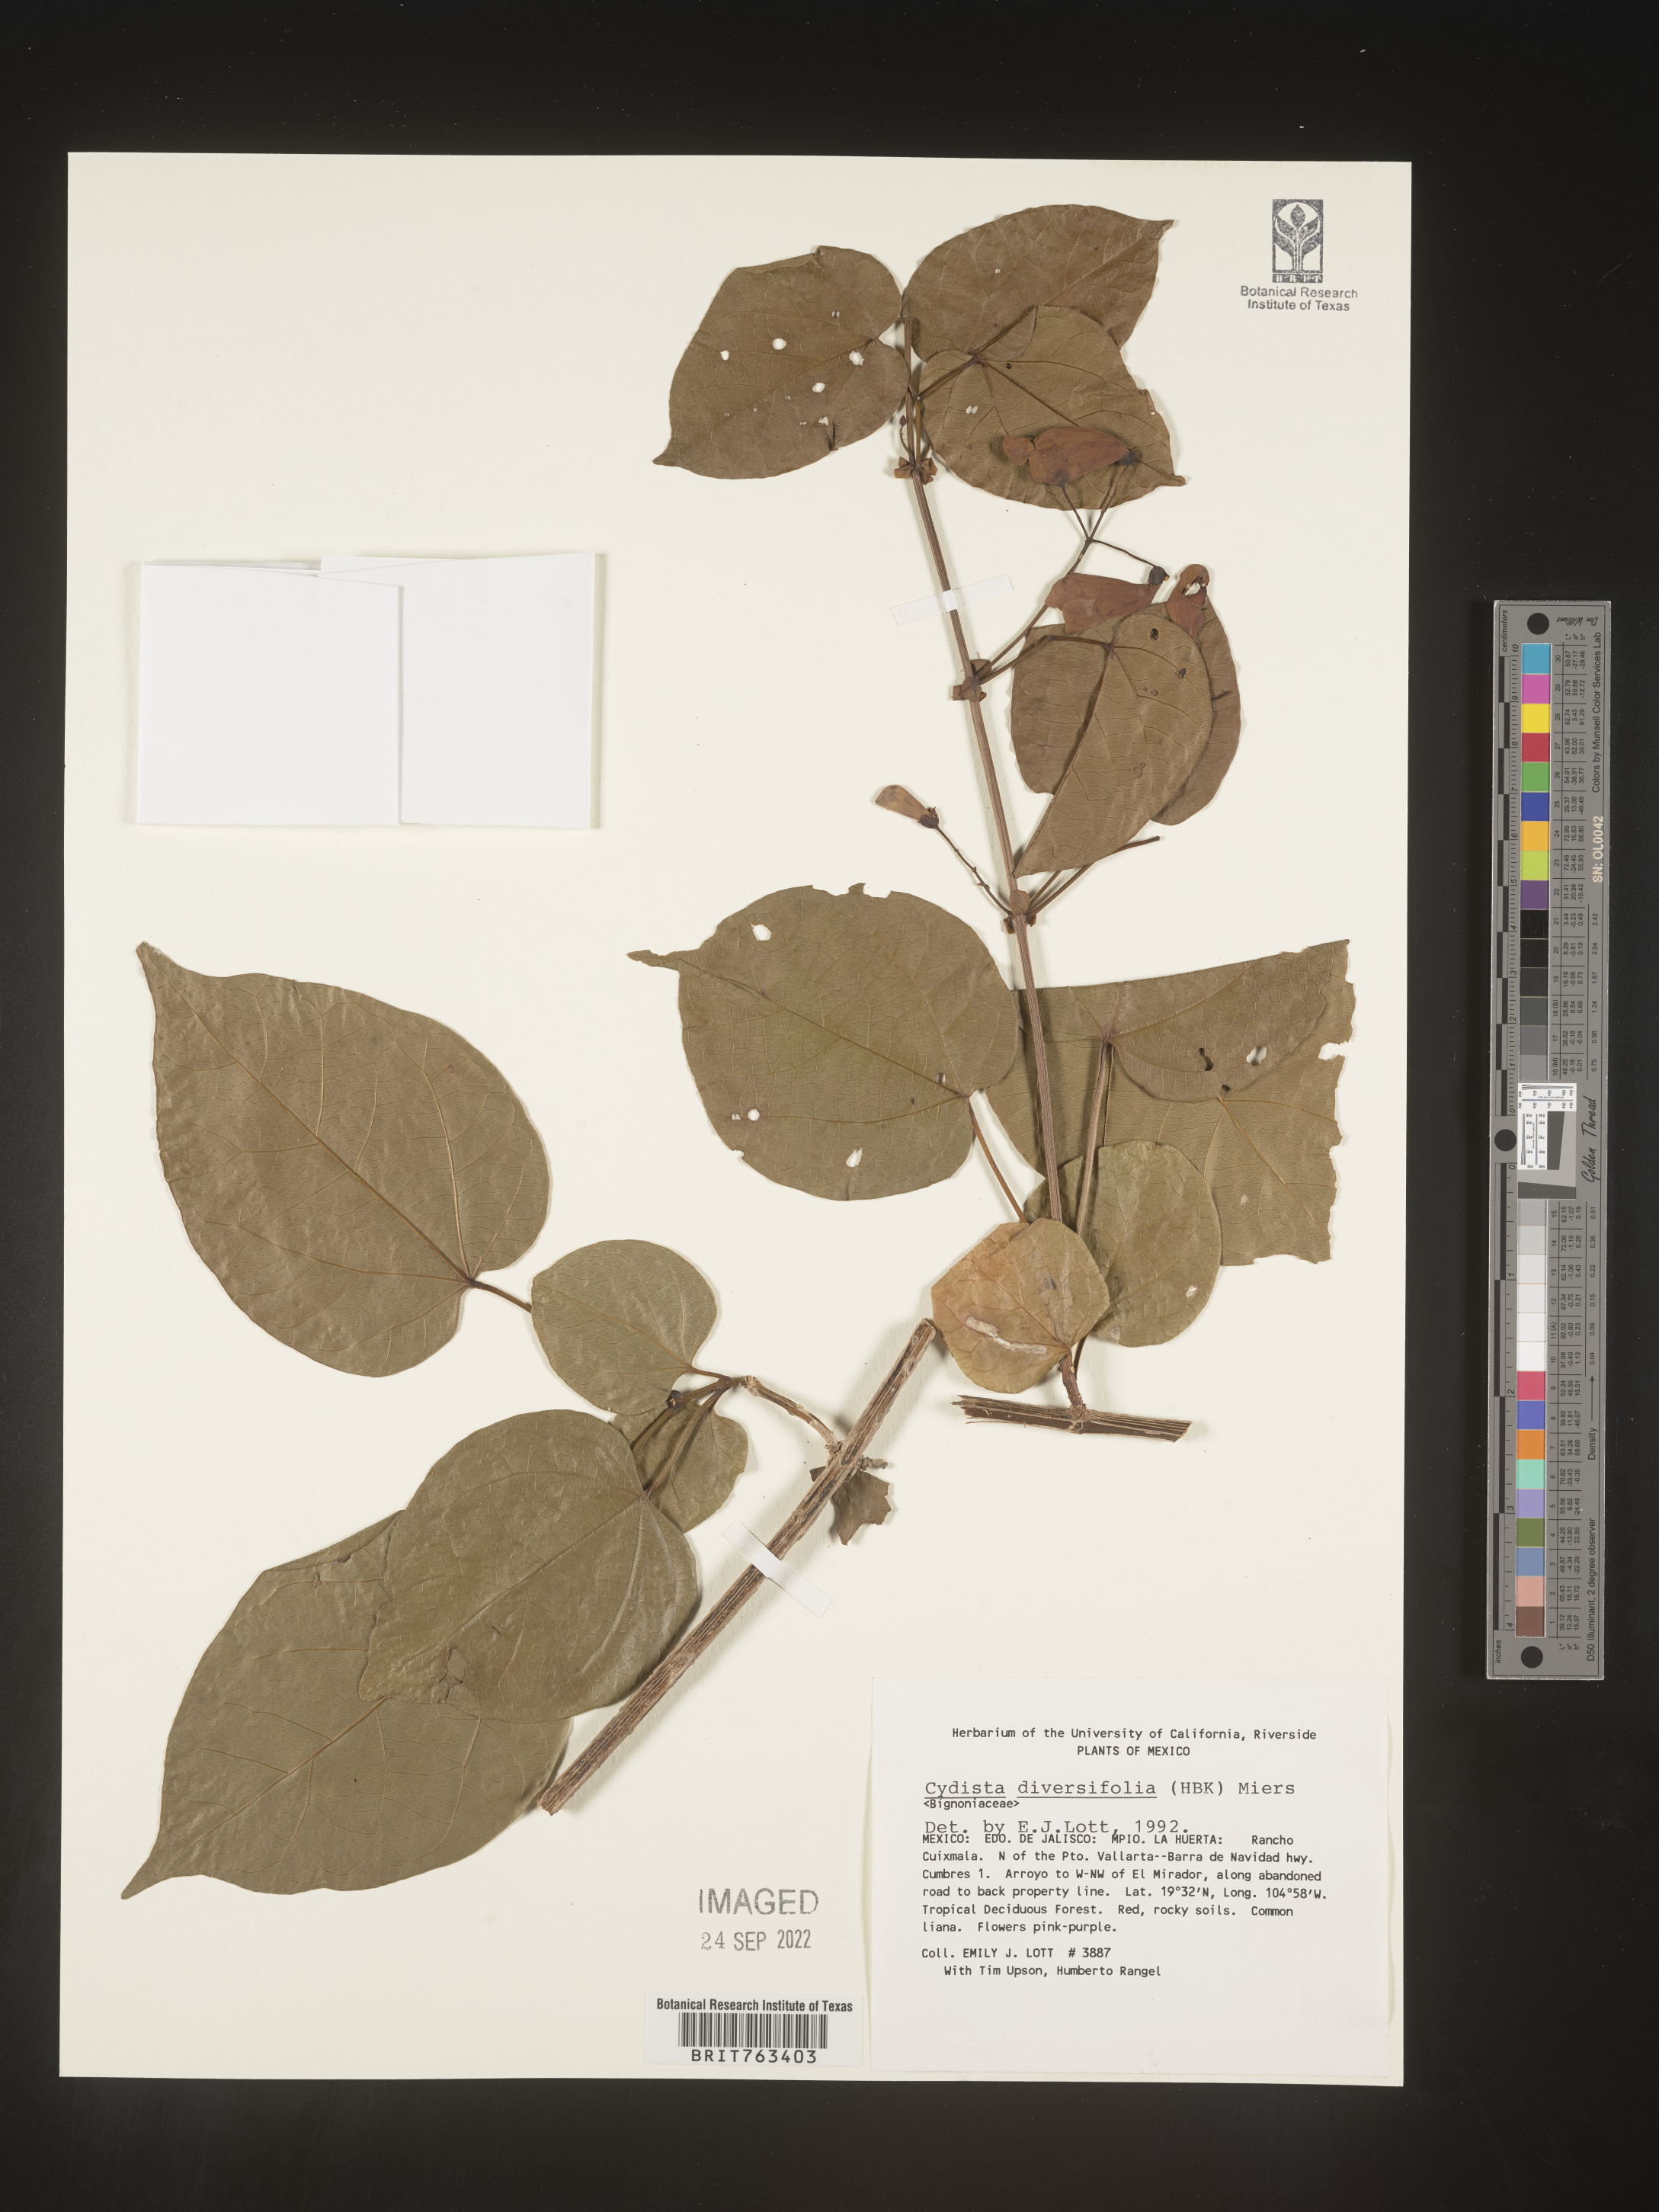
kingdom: Plantae
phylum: Tracheophyta
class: Magnoliopsida
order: Lamiales
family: Bignoniaceae
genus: Bignonia
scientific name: Bignonia
